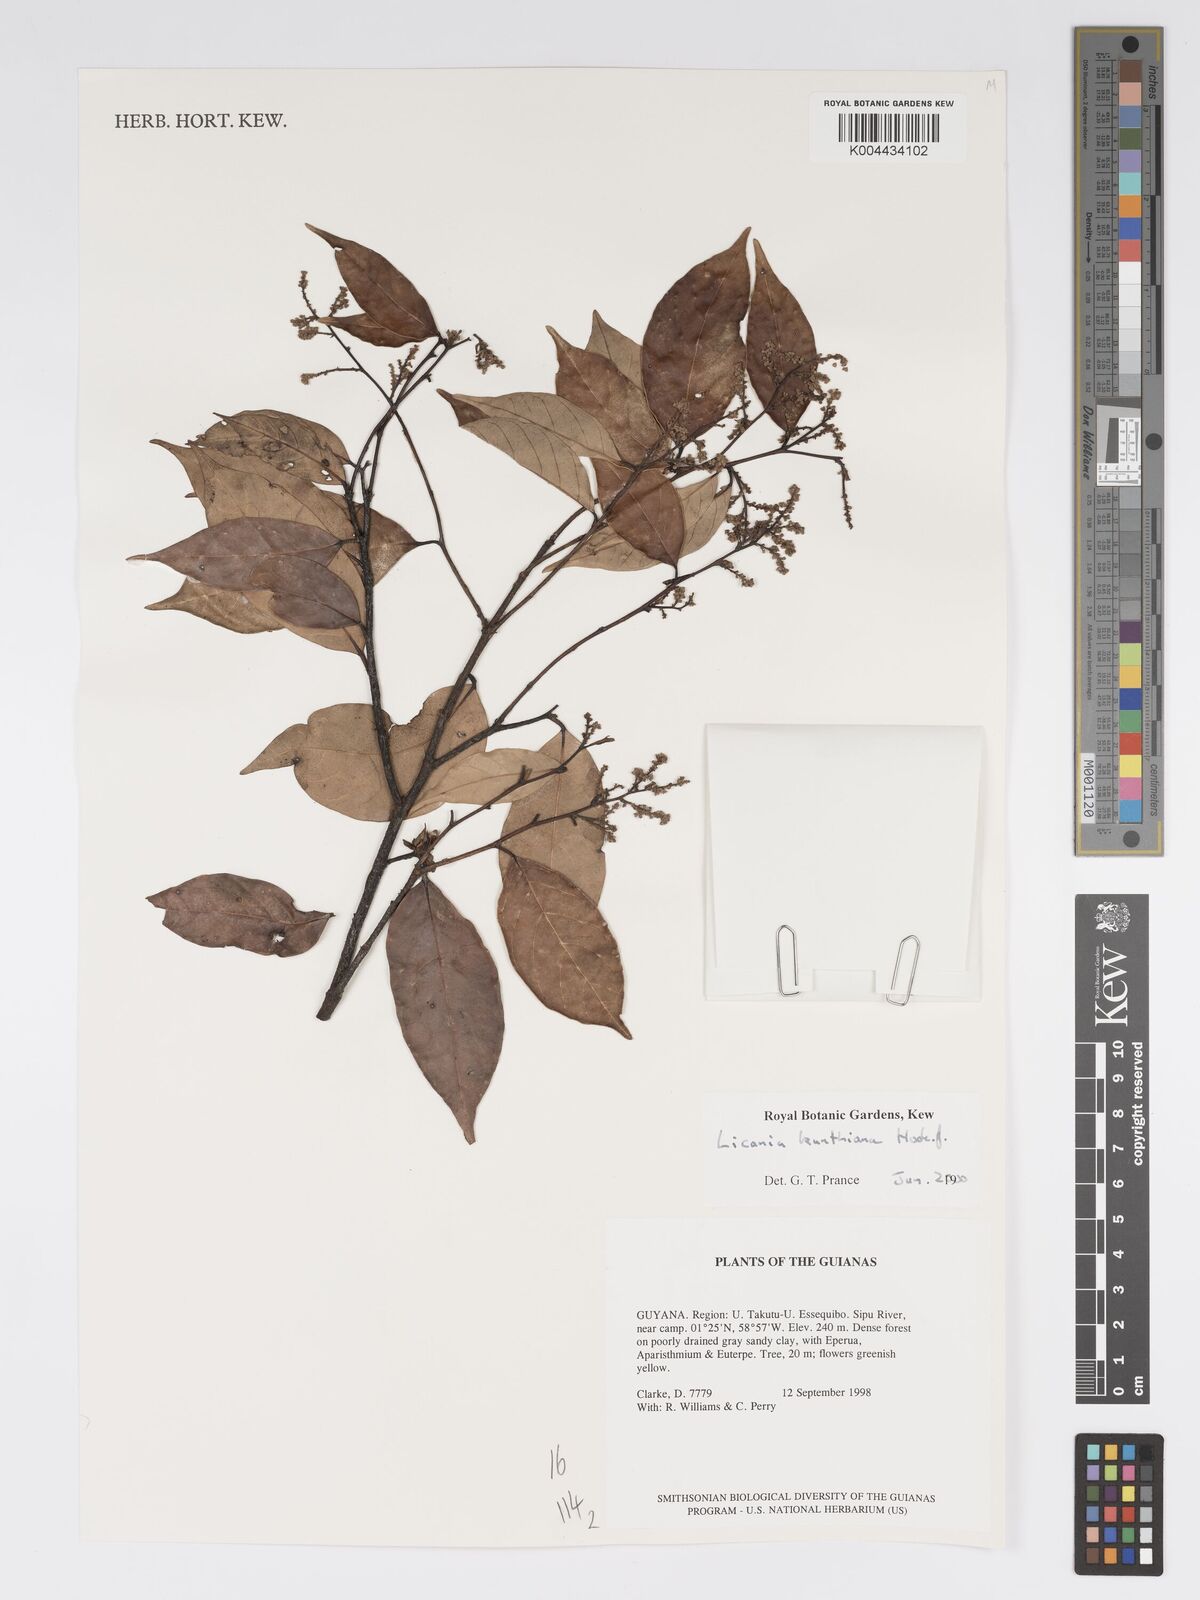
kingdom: Plantae
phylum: Tracheophyta
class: Magnoliopsida
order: Malpighiales
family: Chrysobalanaceae
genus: Licania
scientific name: Licania kunthiana
